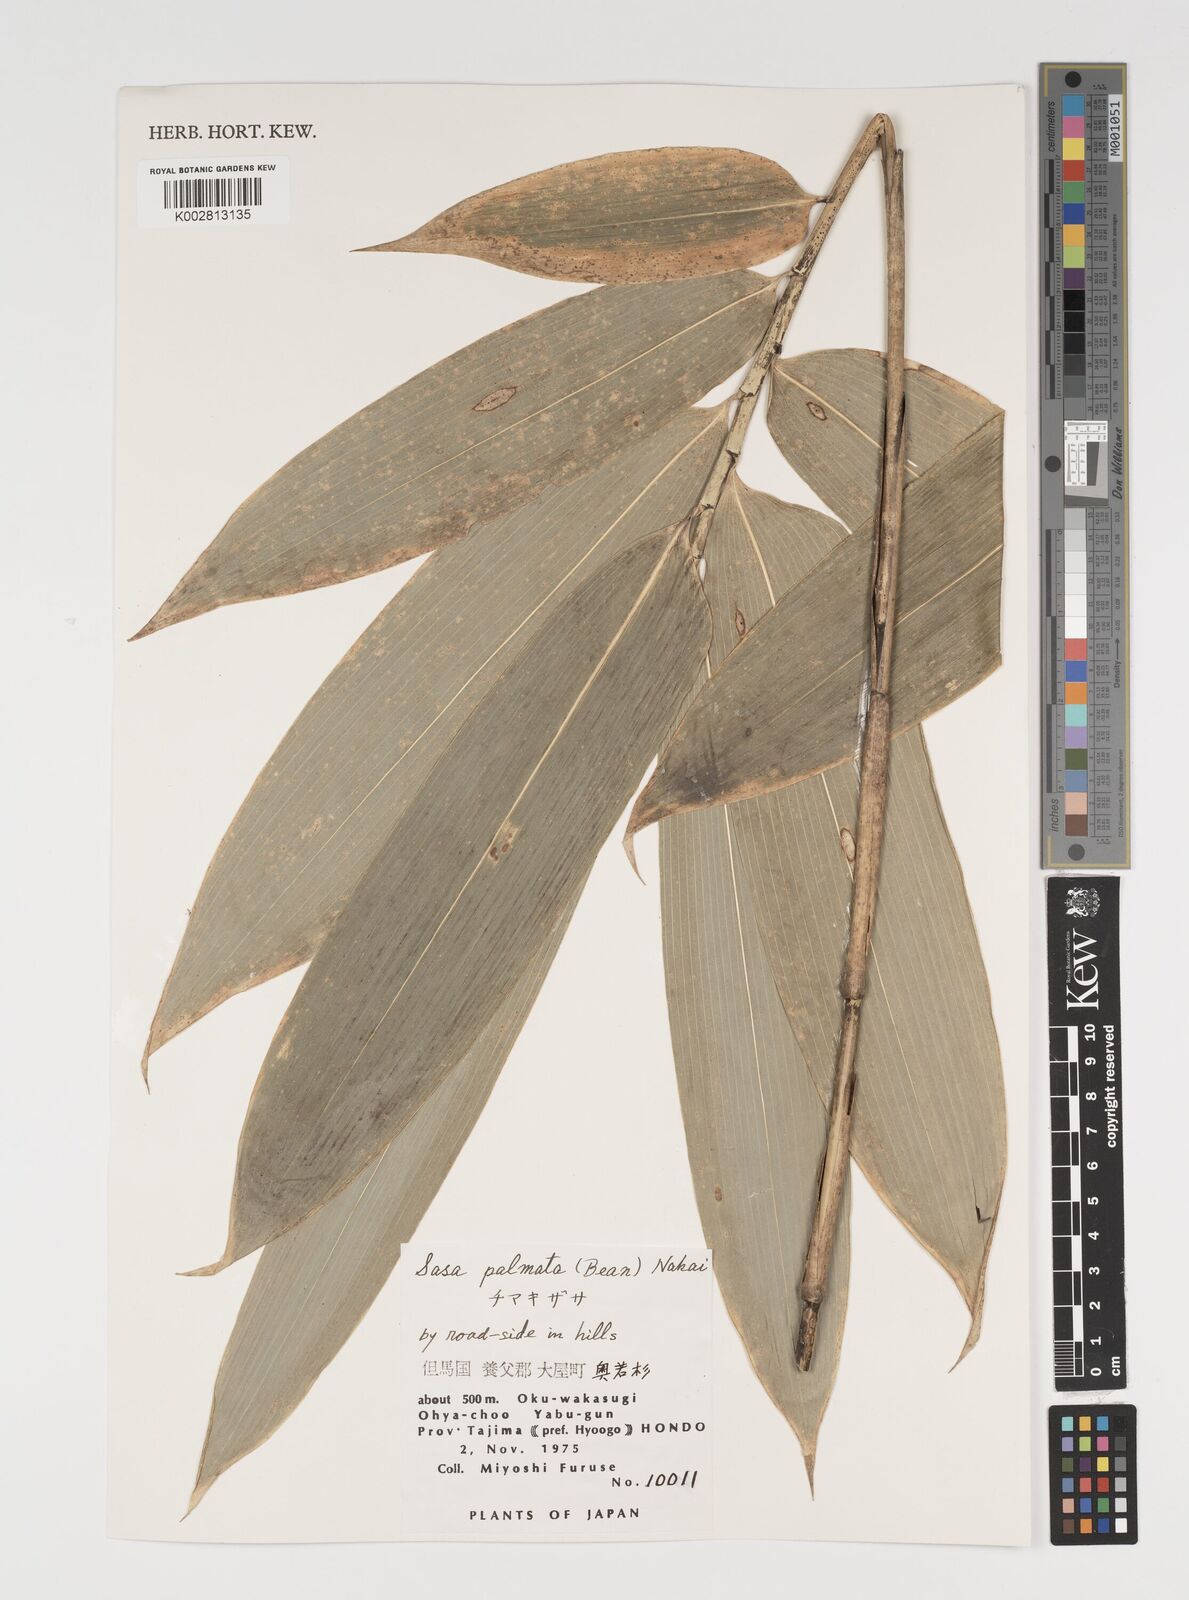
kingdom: Plantae
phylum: Tracheophyta
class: Liliopsida
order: Poales
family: Poaceae
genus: Sasa
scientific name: Sasa palmata
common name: Broad-leaved bamboo
